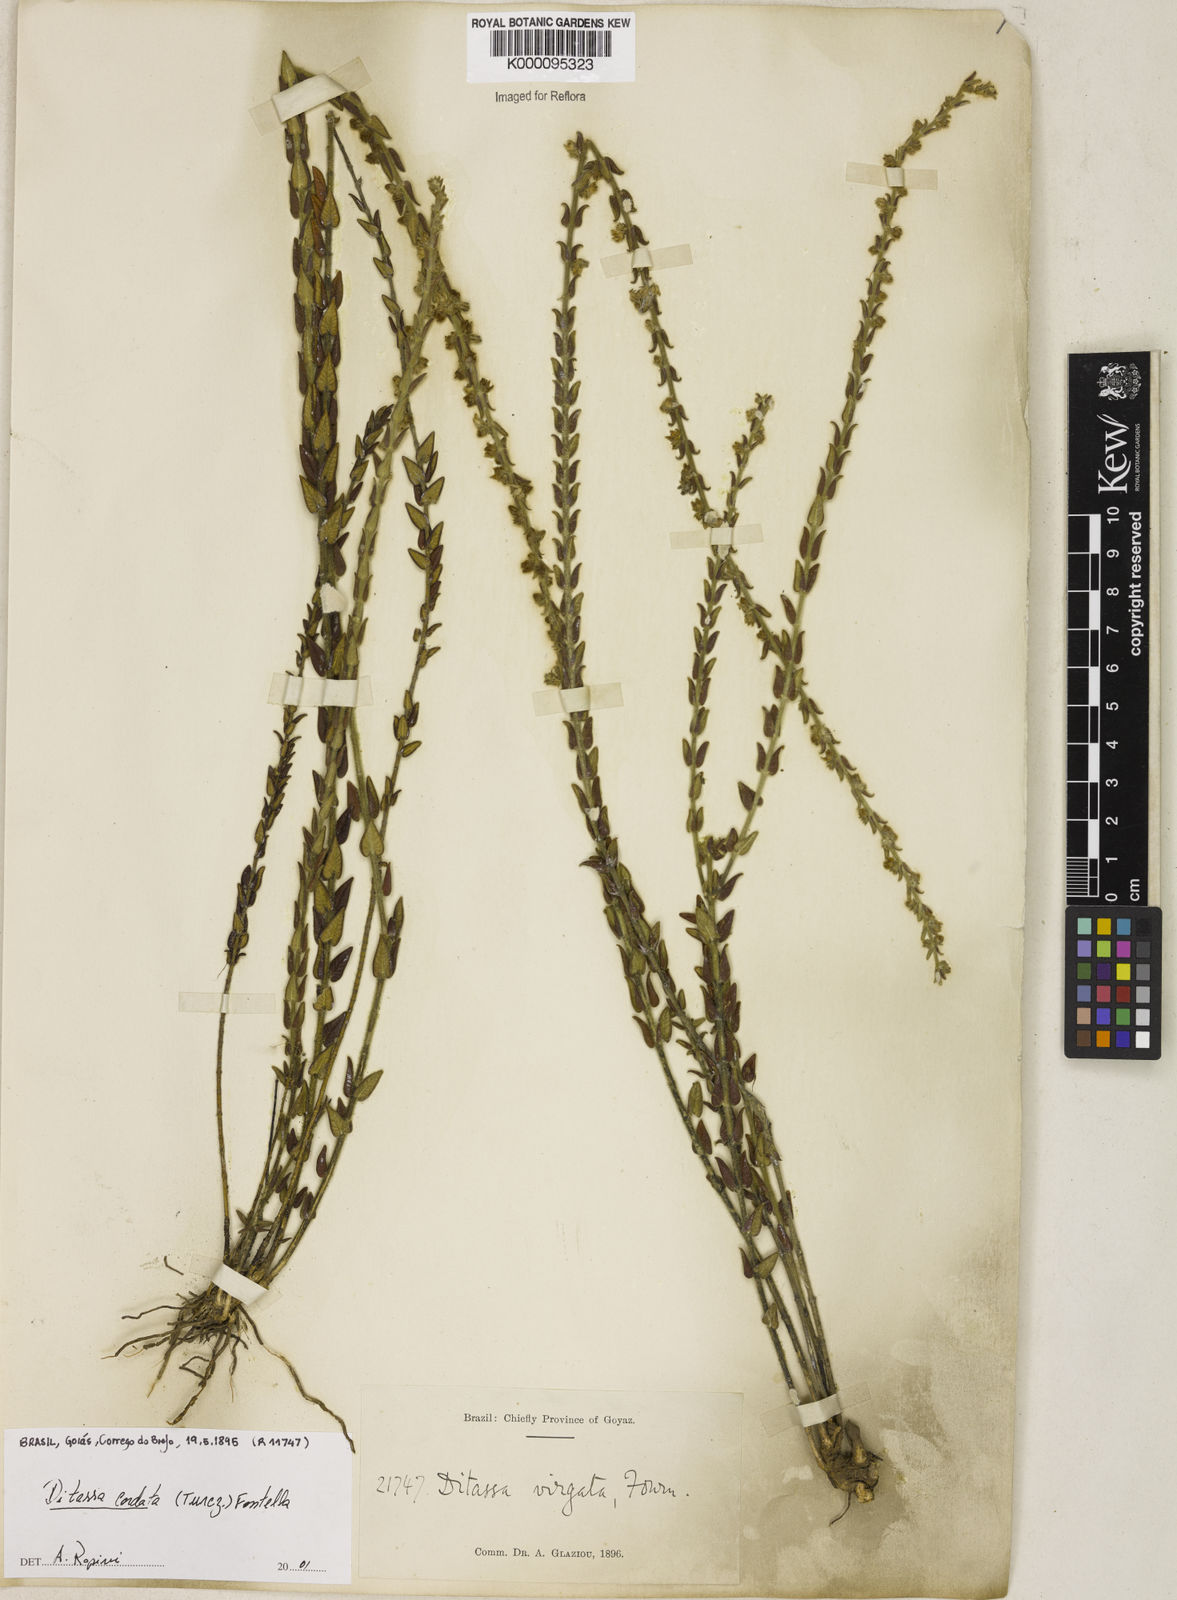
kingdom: Plantae
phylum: Tracheophyta
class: Magnoliopsida
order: Gentianales
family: Apocynaceae
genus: Minaria
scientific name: Minaria cordata
